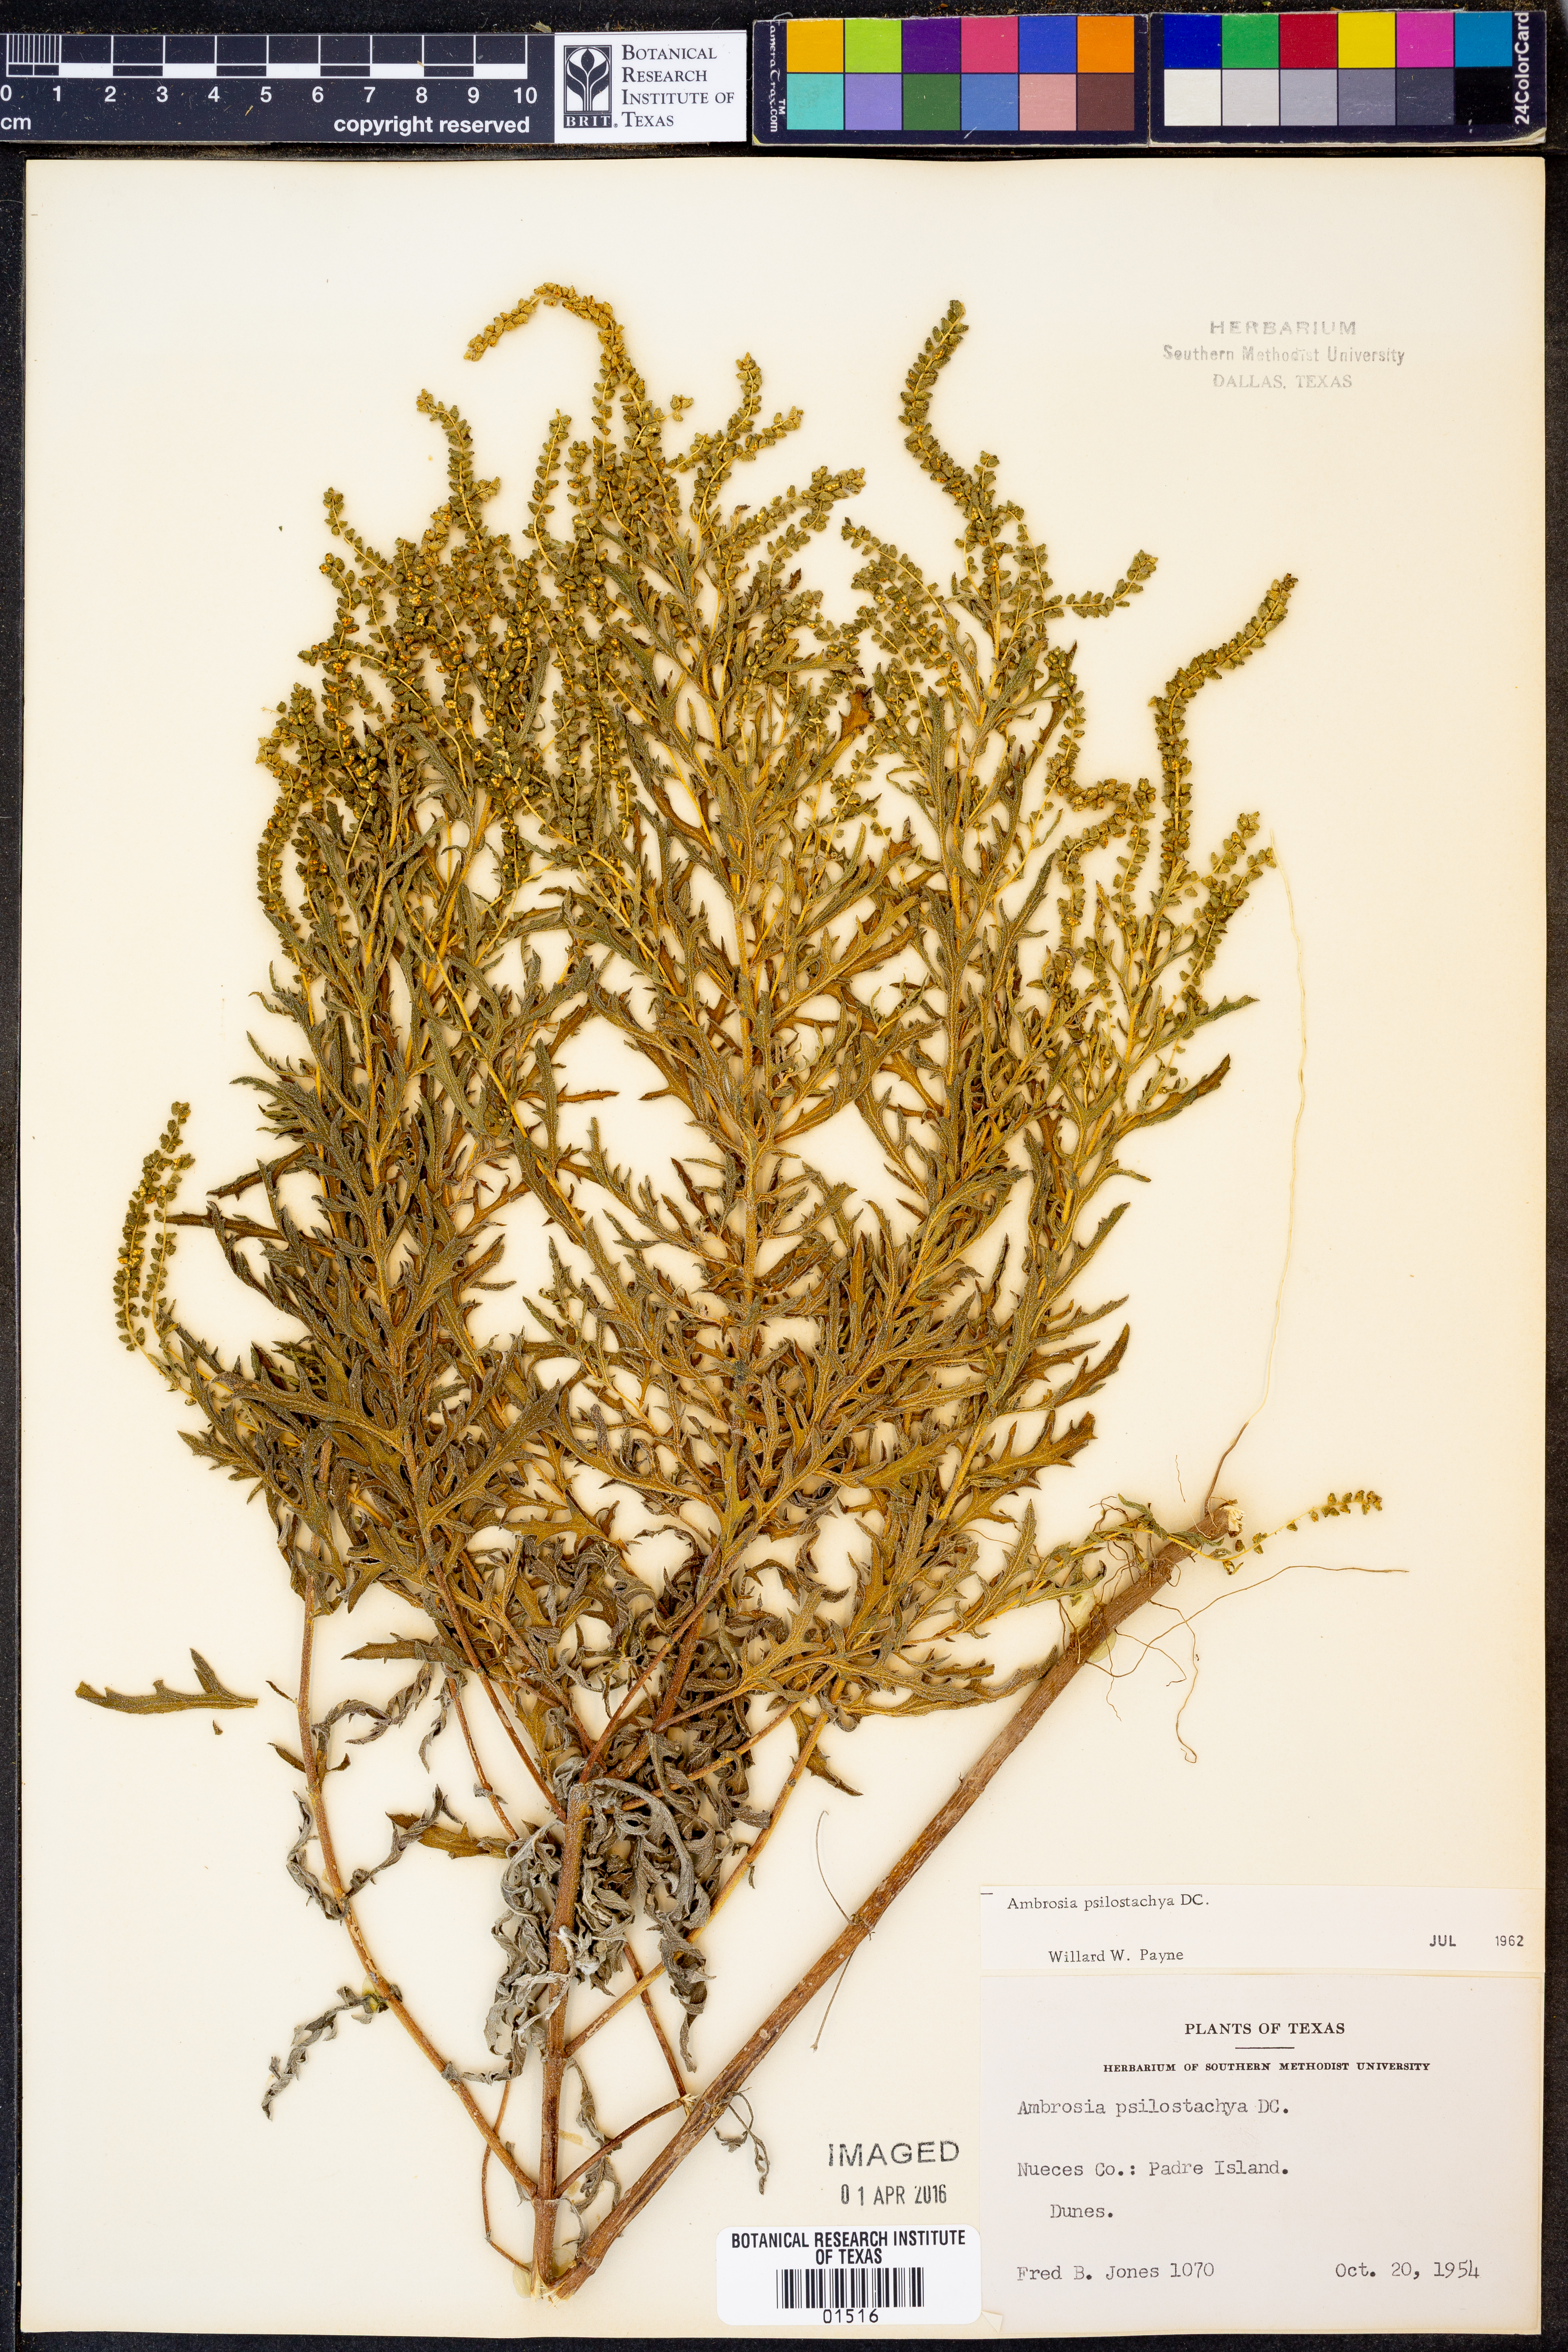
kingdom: Plantae
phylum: Tracheophyta
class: Magnoliopsida
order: Asterales
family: Asteraceae
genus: Ambrosia
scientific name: Ambrosia psilostachya
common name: Perennial ragweed
